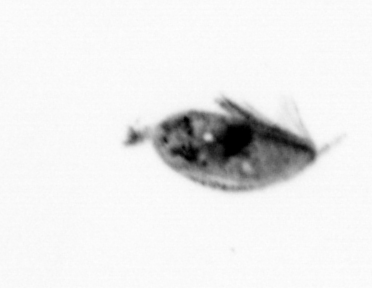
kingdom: Animalia
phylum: Arthropoda
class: Maxillopoda
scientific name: Maxillopoda
